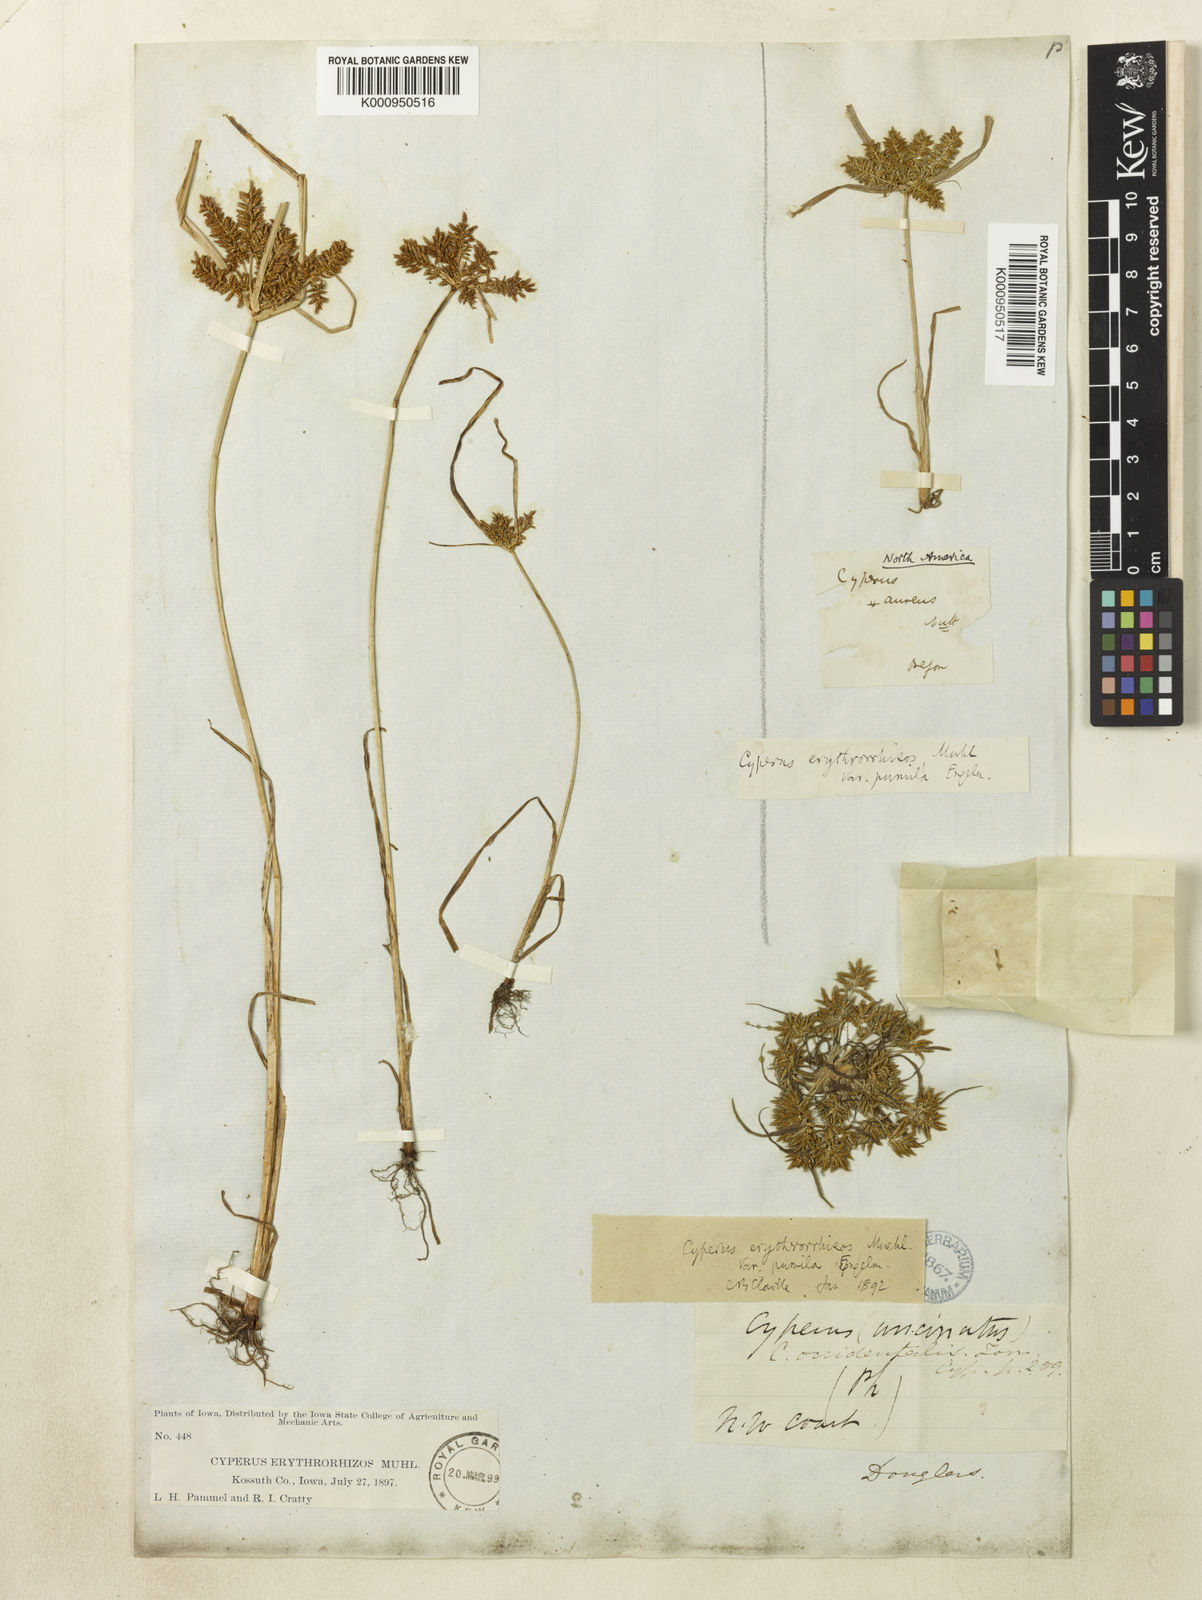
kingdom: Plantae
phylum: Tracheophyta
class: Liliopsida
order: Poales
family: Cyperaceae
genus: Cyperus
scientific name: Cyperus erythrorhizos
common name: Red-root flat sedge
